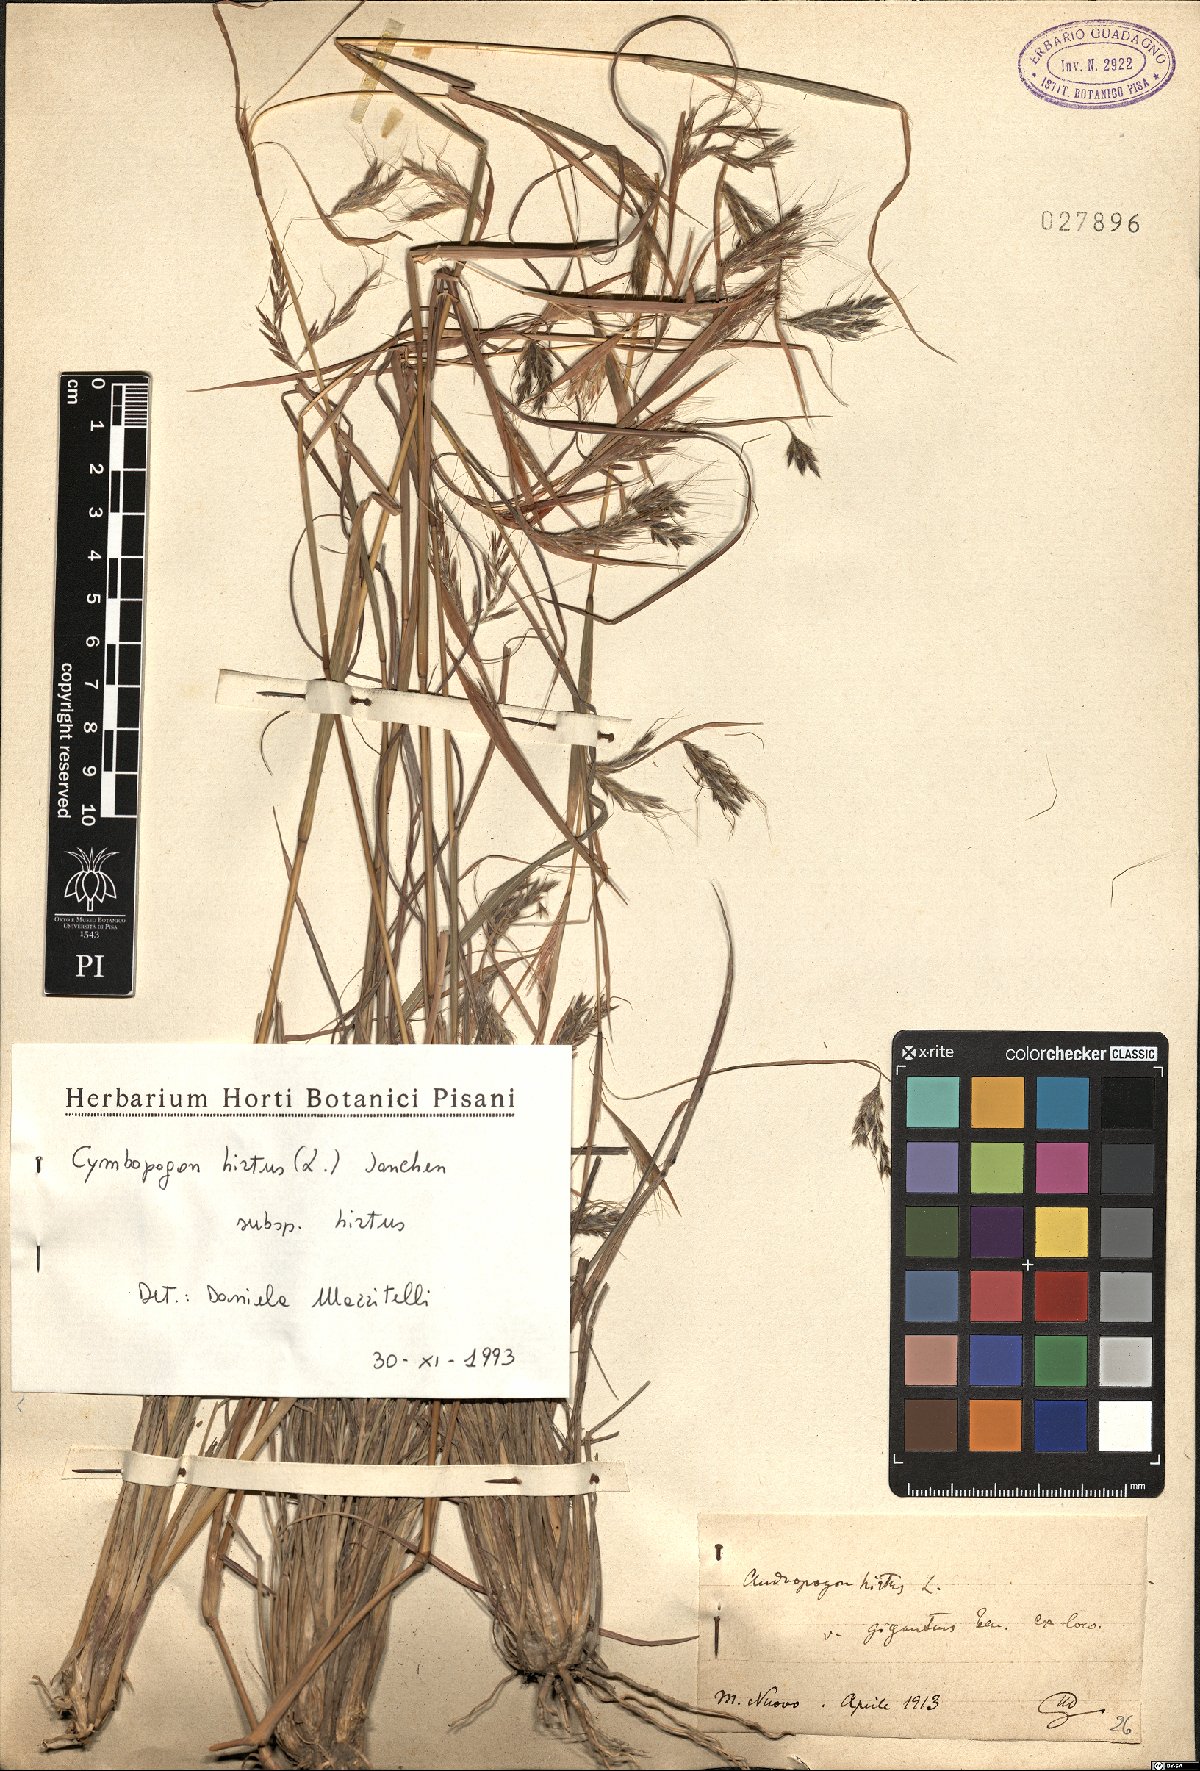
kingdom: Plantae
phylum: Tracheophyta
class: Liliopsida
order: Poales
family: Poaceae
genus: Cymbopogon
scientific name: Cymbopogon hirtus
